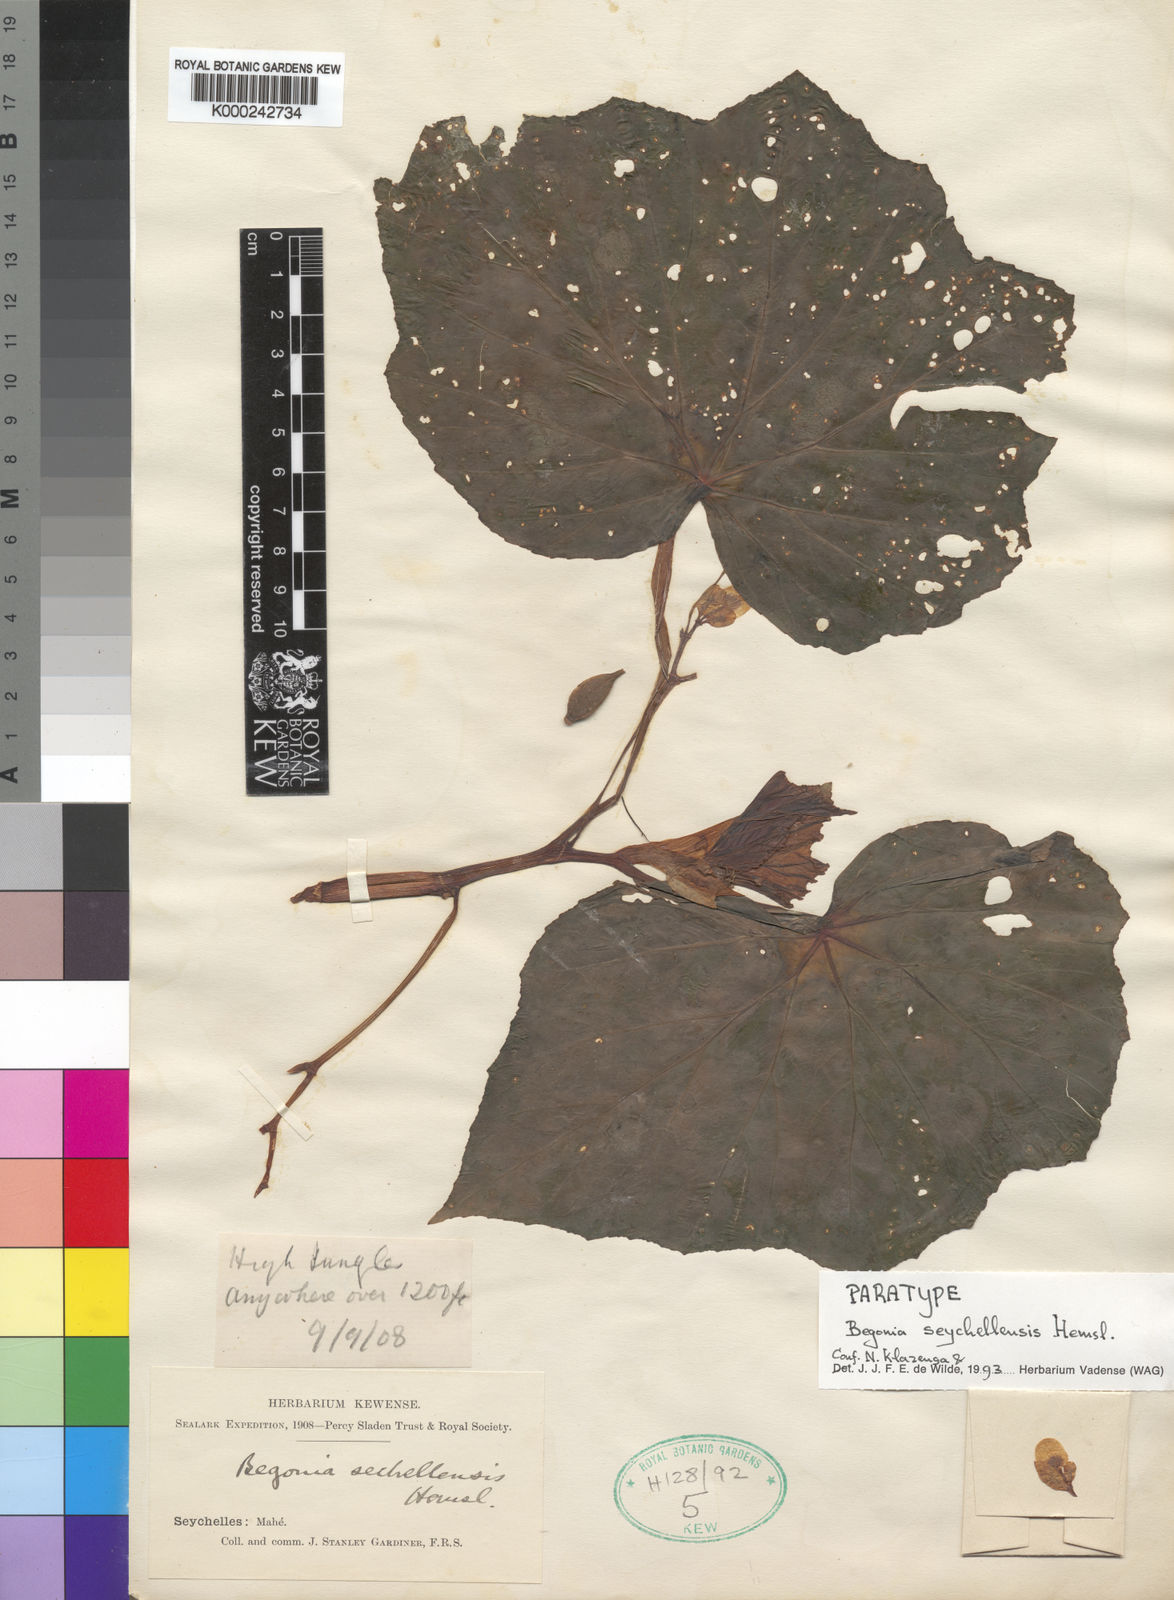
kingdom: Plantae
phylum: Tracheophyta
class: Magnoliopsida
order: Cucurbitales
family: Begoniaceae
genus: Begonia
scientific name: Begonia comorensis
